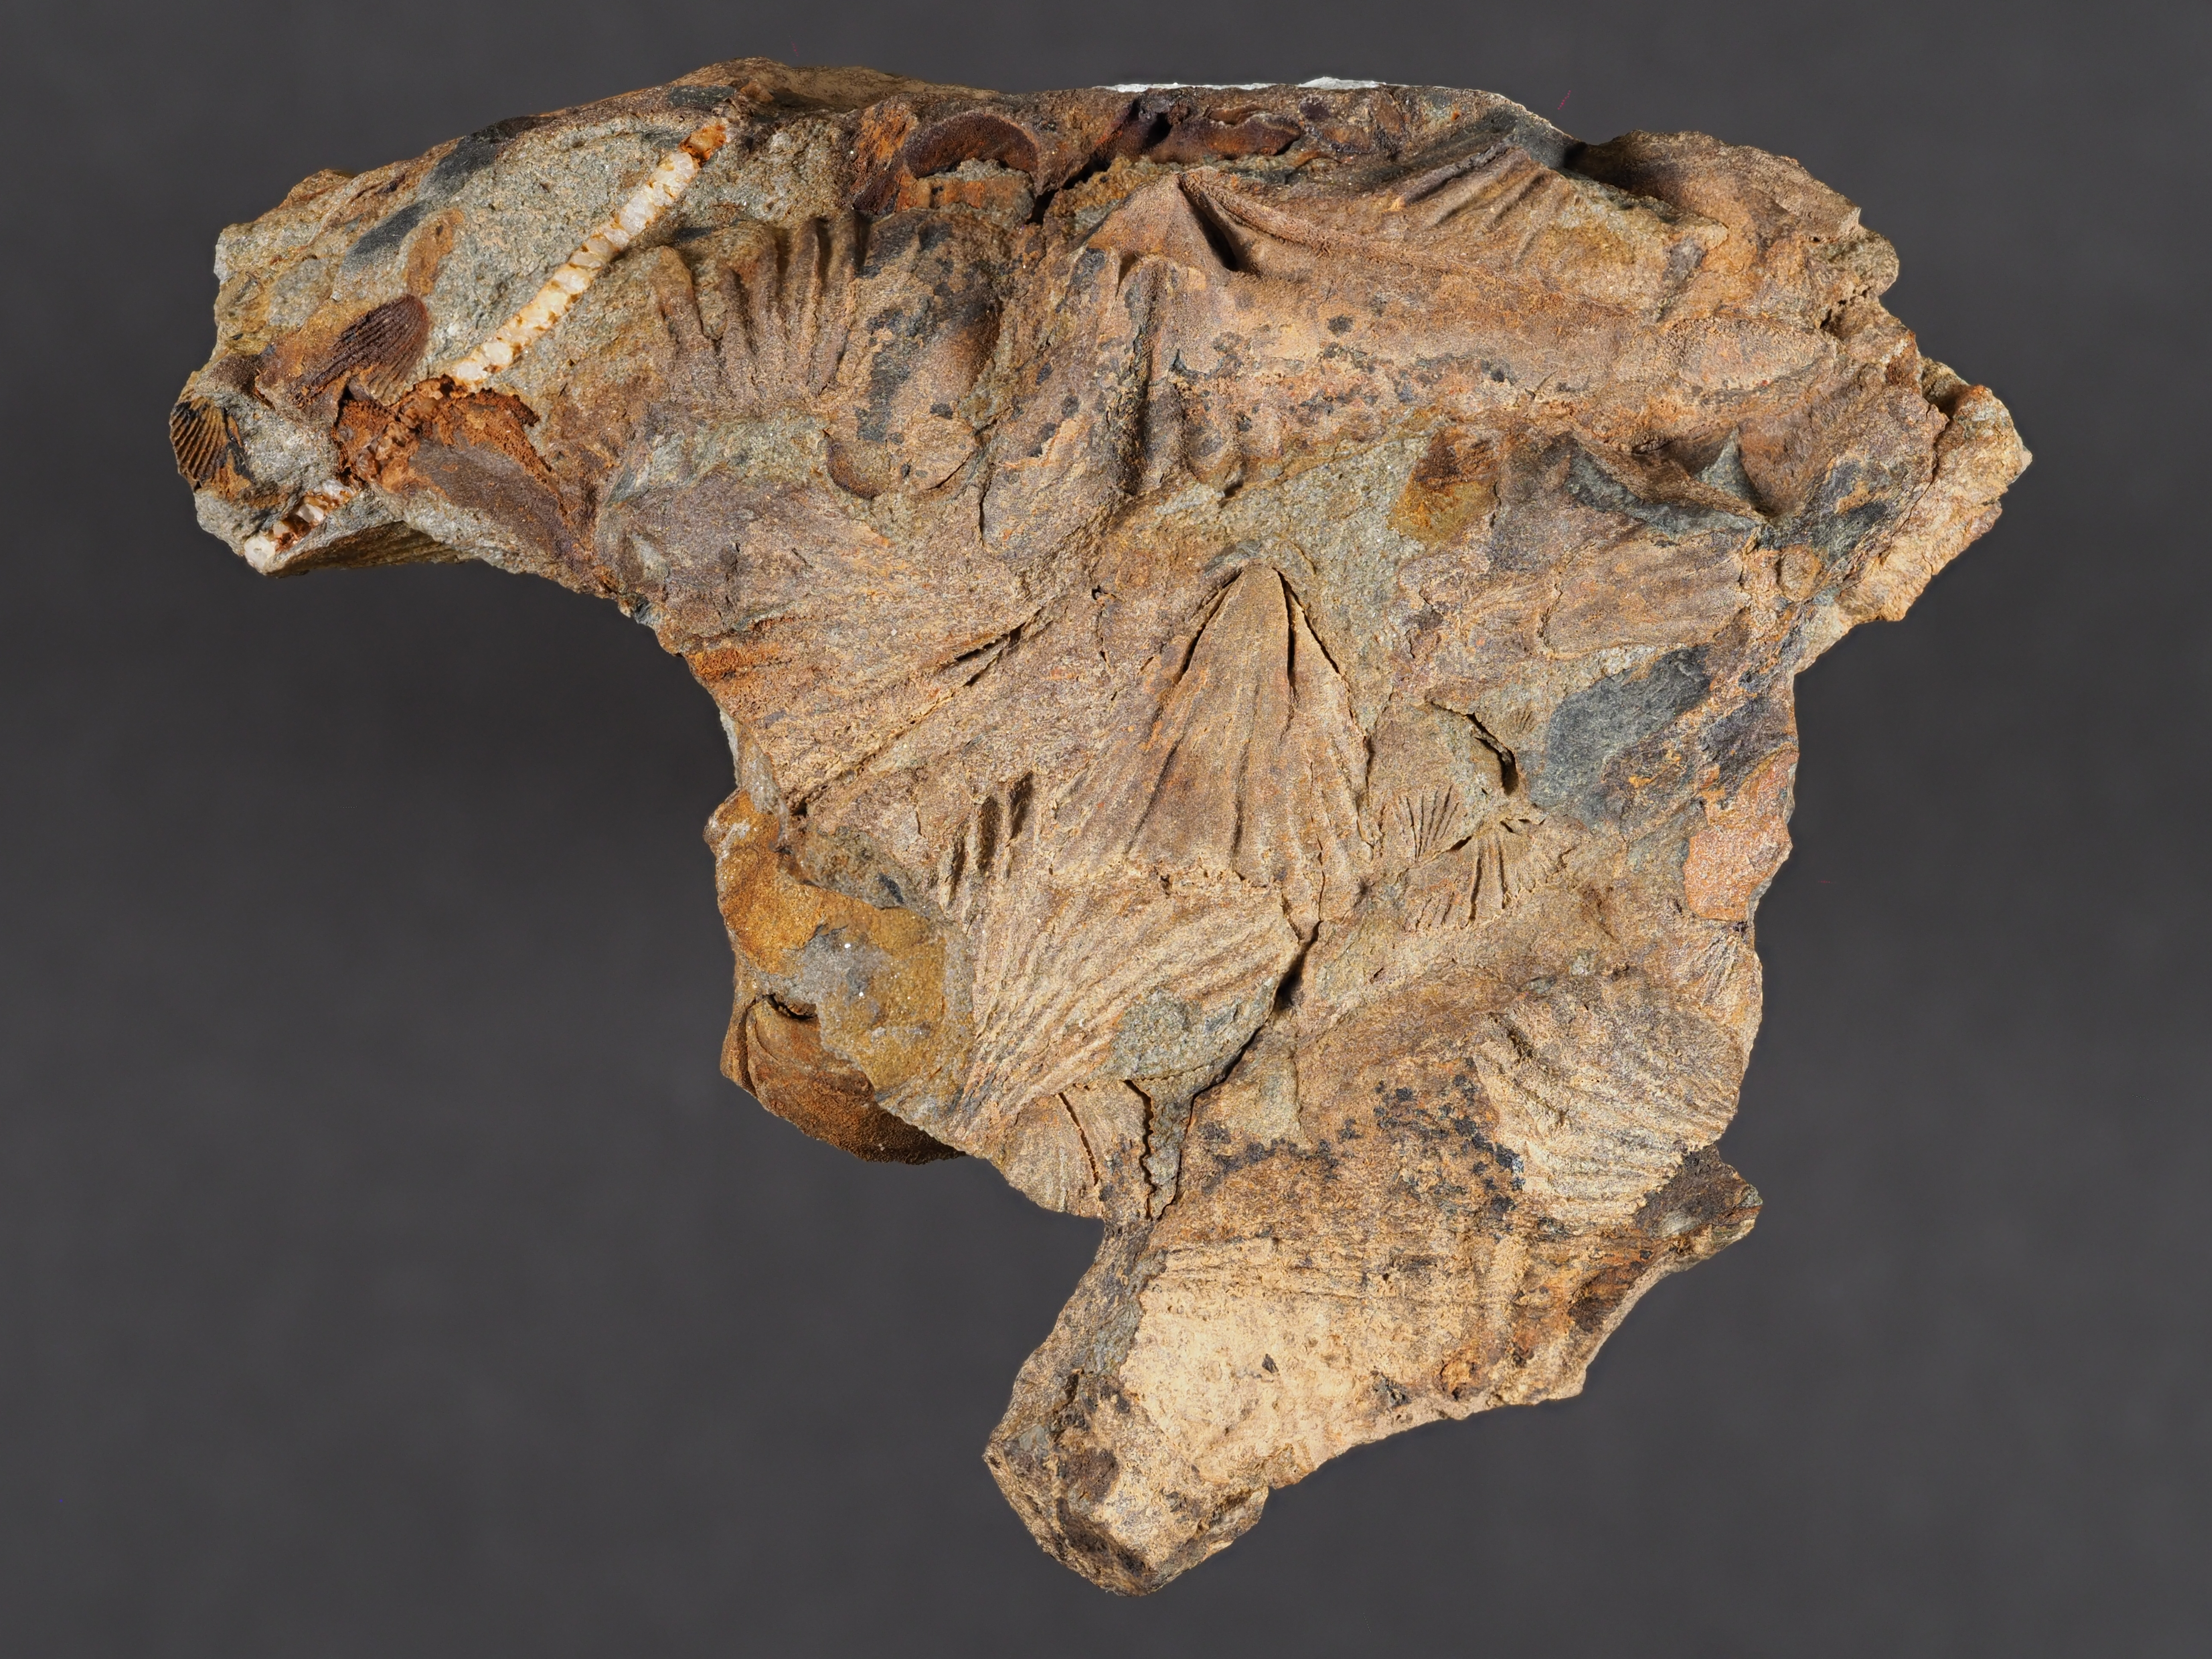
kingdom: Animalia
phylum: Brachiopoda
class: Rhynchonellata
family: Delthyrididae
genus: Euryspirifer
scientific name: Euryspirifer
